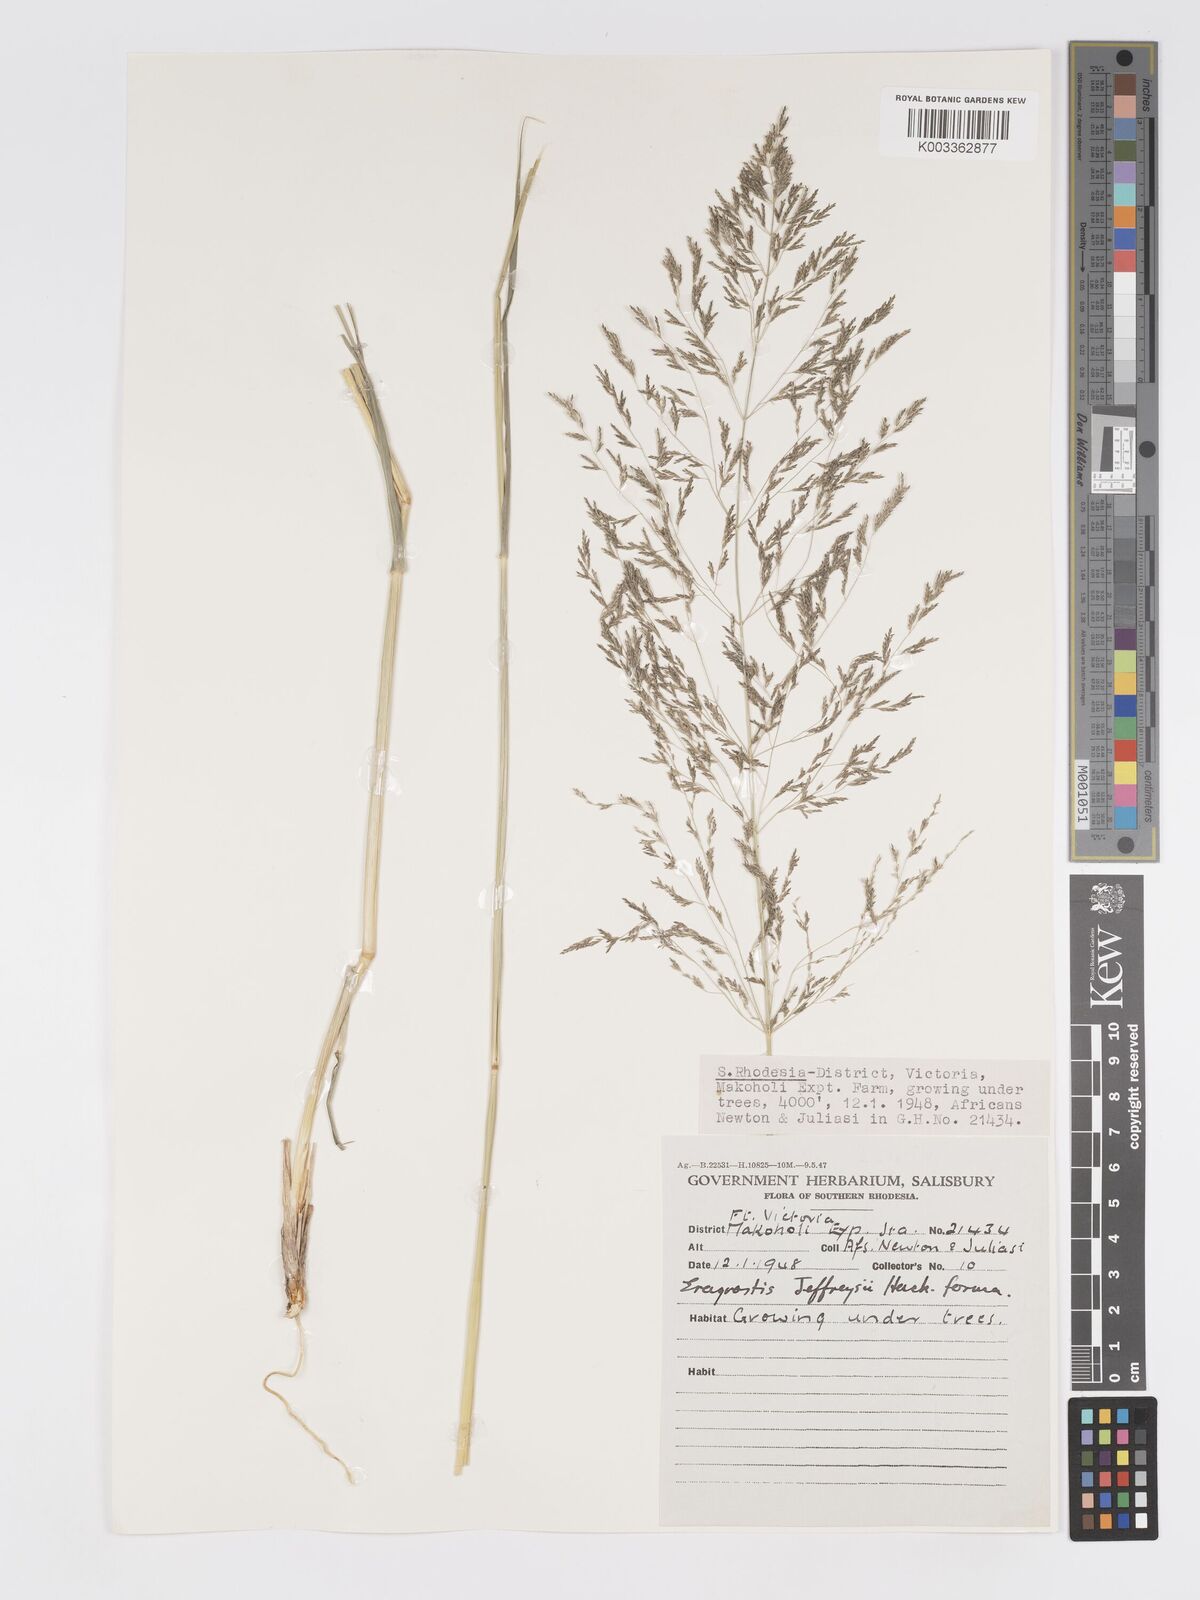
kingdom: Plantae
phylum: Tracheophyta
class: Liliopsida
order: Poales
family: Poaceae
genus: Eragrostis
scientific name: Eragrostis cylindriflora
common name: Cylinderflower lovegrass
